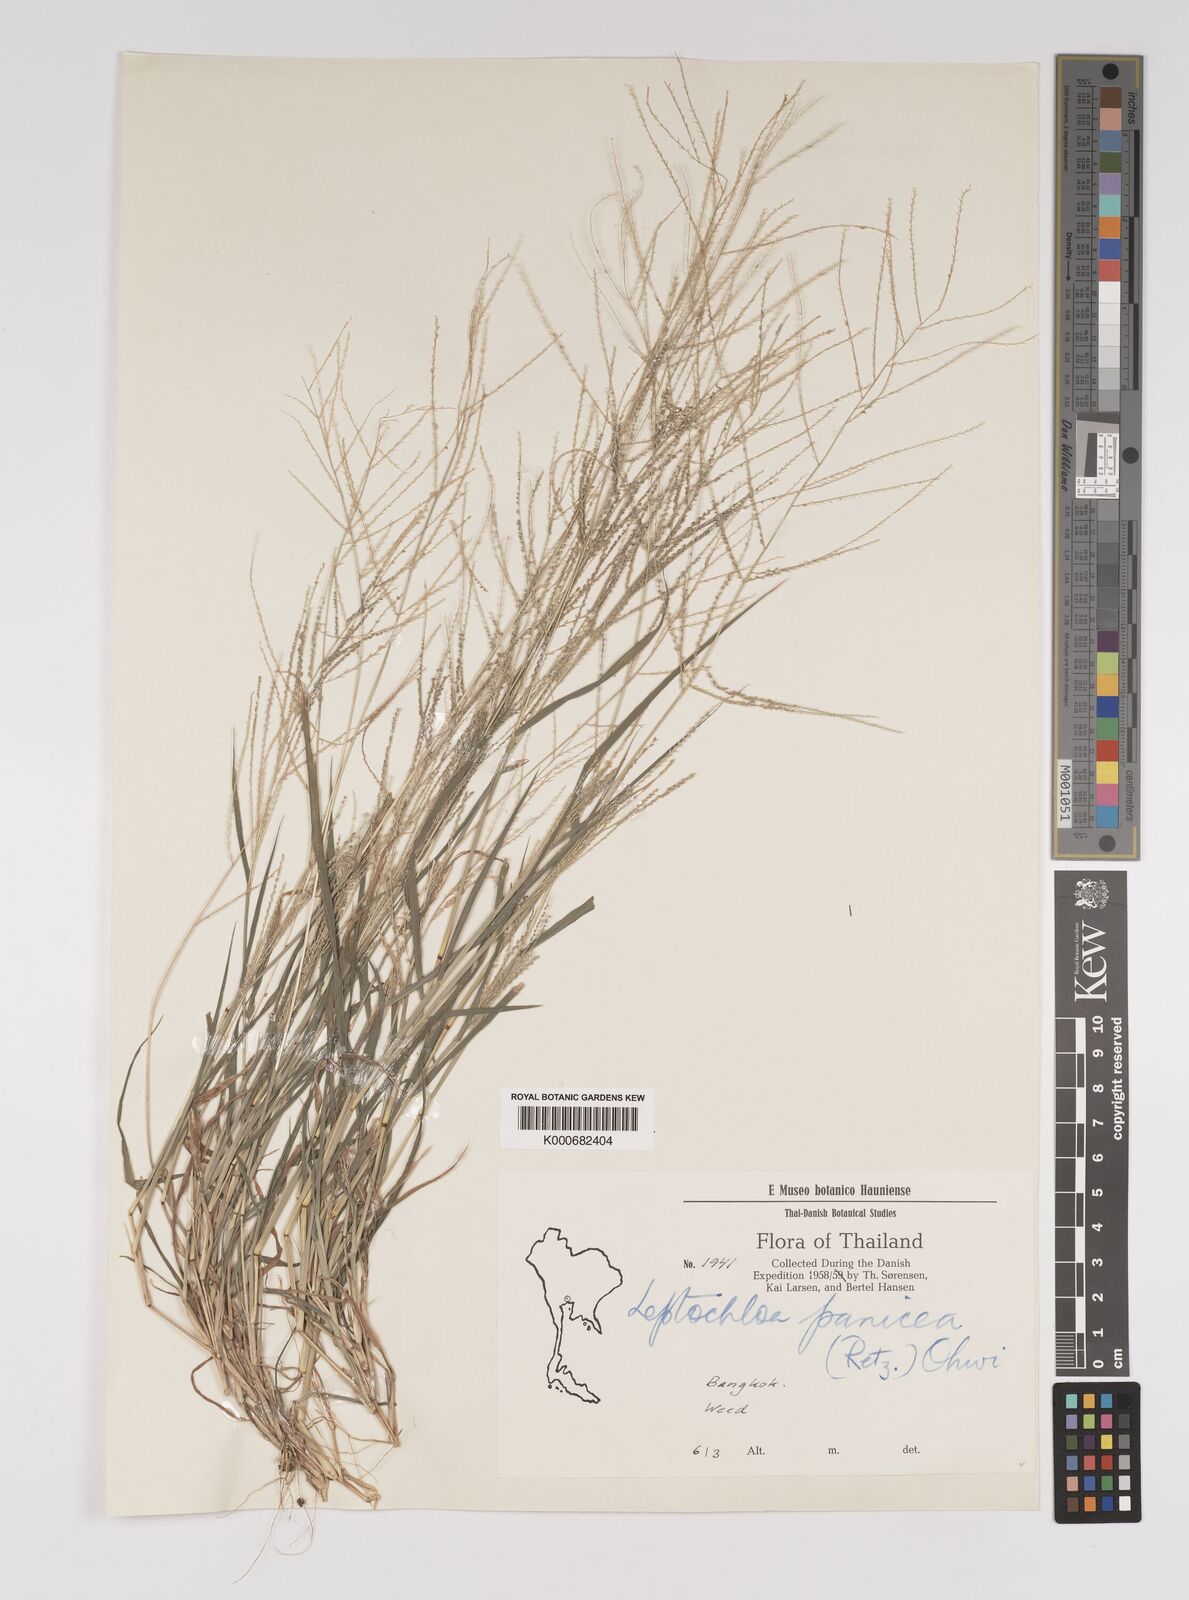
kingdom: Plantae
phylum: Tracheophyta
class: Liliopsida
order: Poales
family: Poaceae
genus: Leptochloa
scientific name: Leptochloa panicea
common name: Mucronate sprangletop
